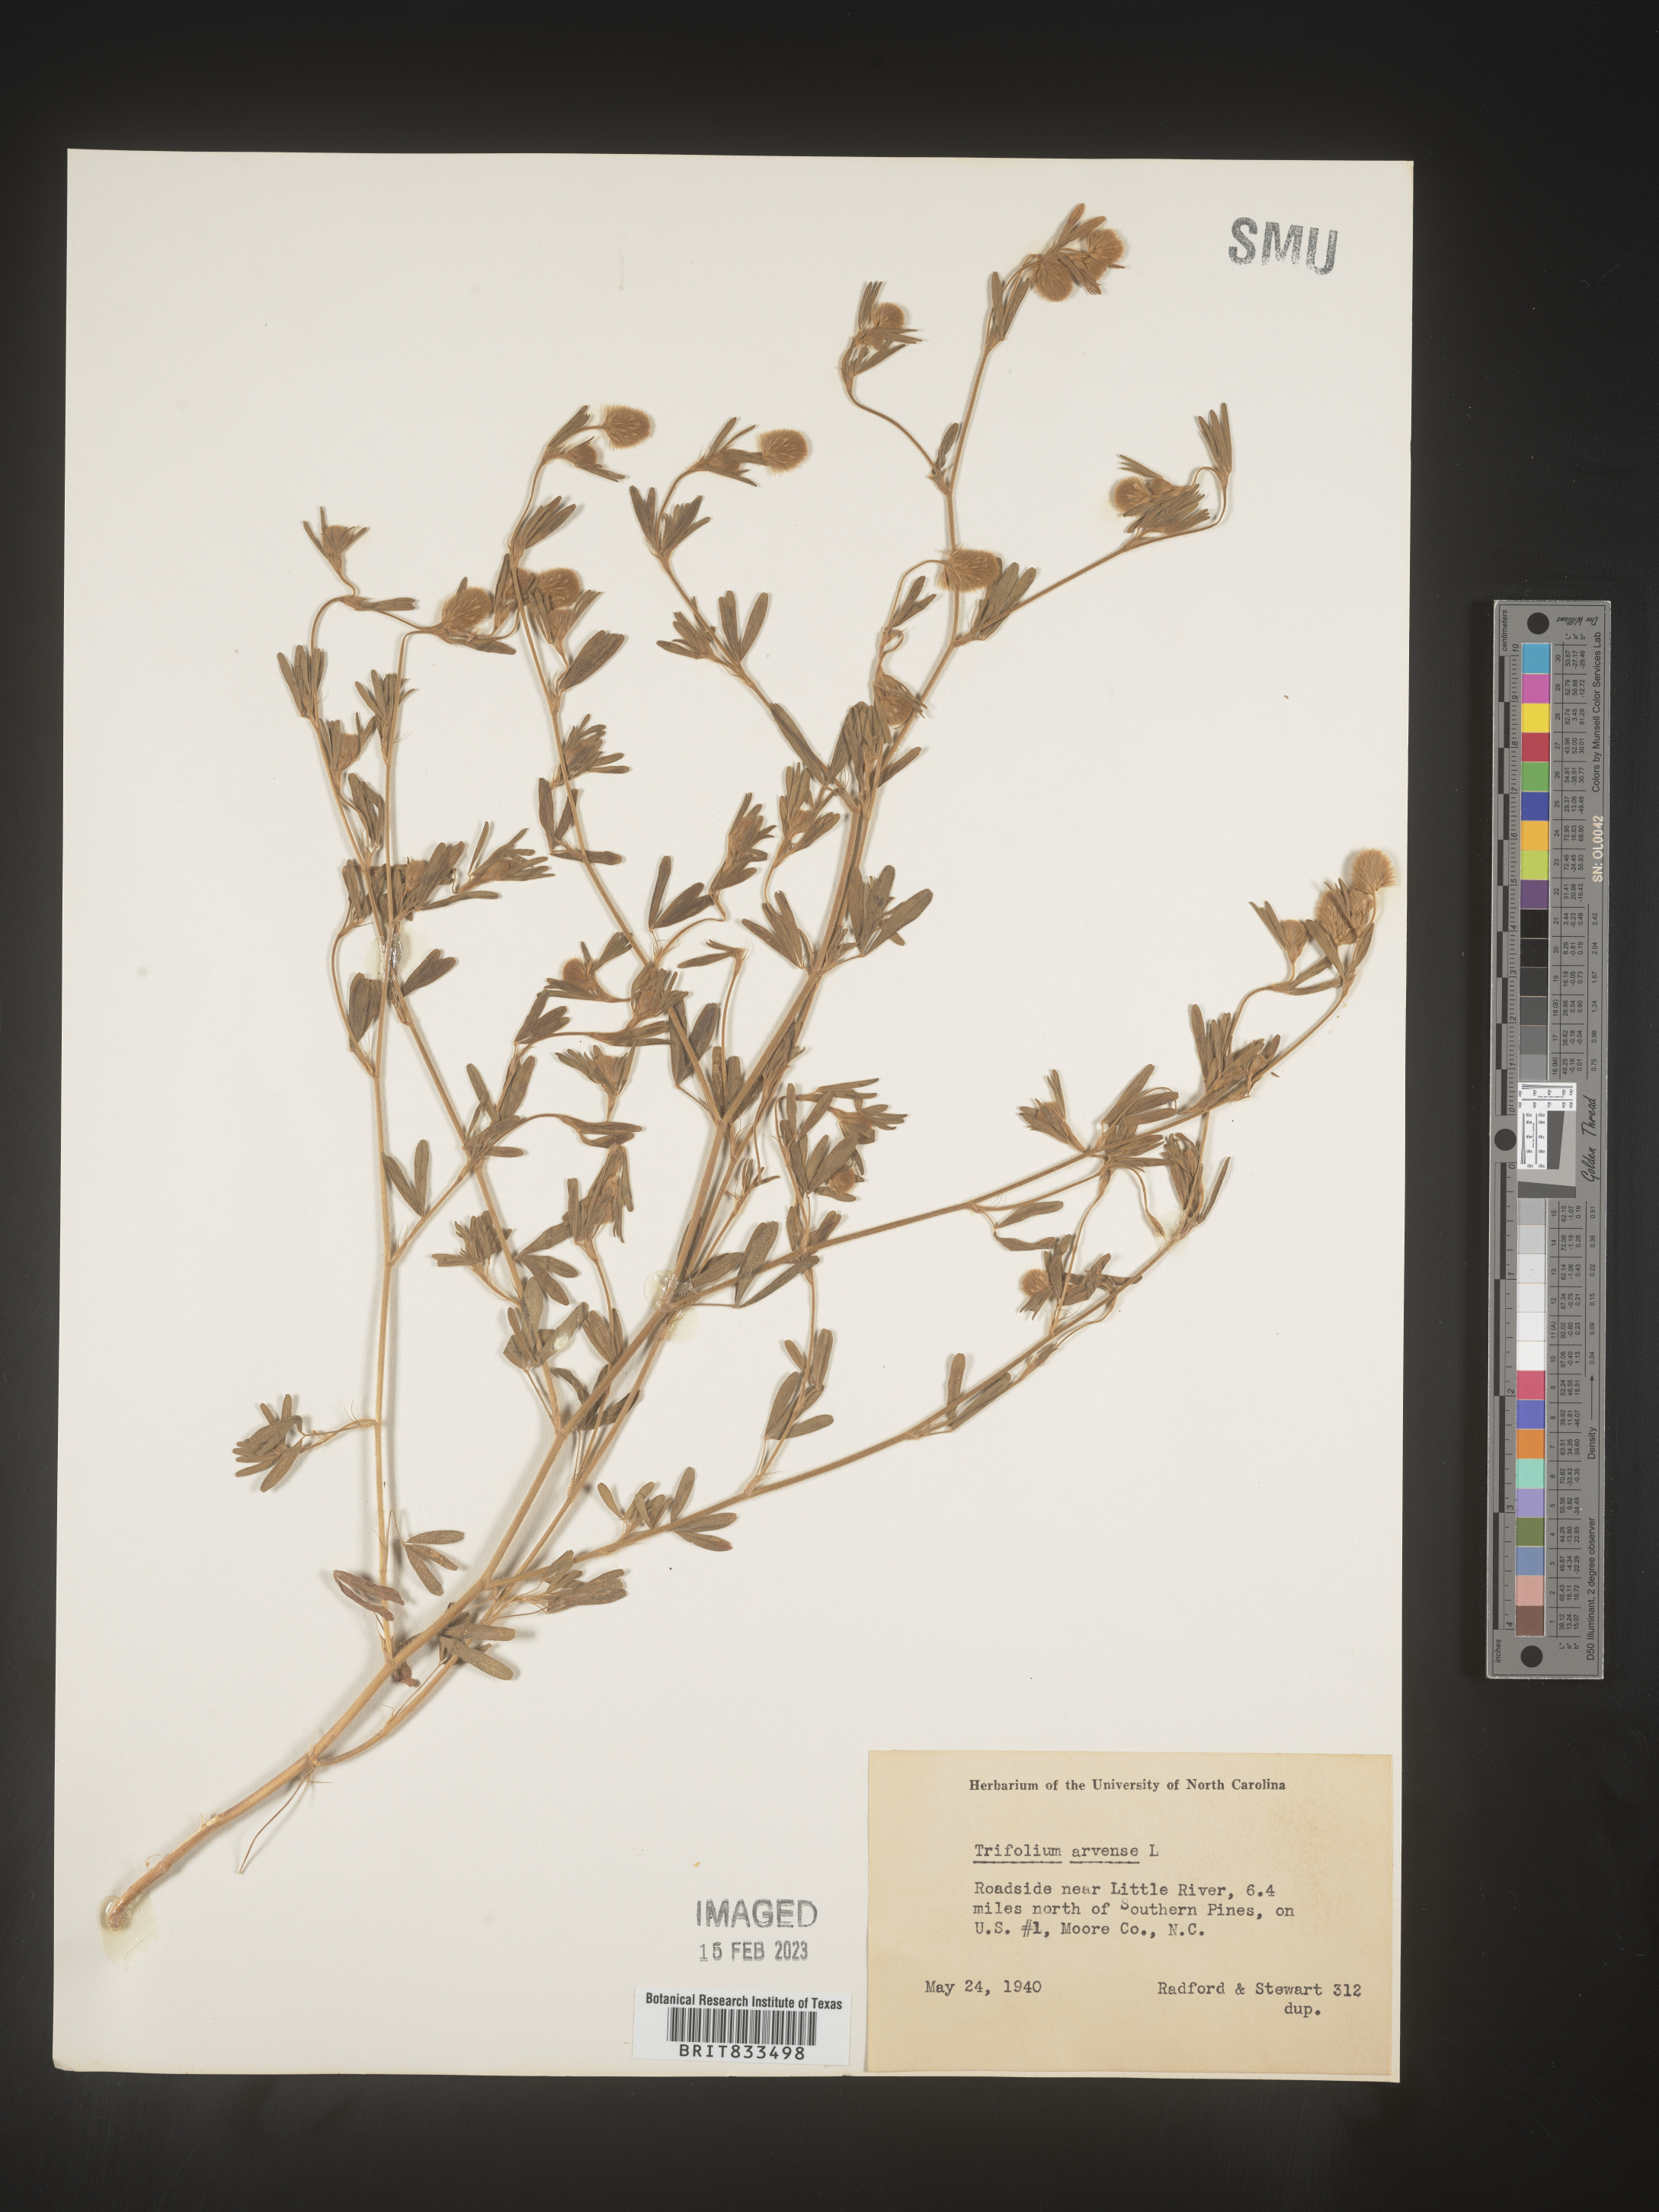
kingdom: Plantae
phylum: Tracheophyta
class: Magnoliopsida
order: Fabales
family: Fabaceae
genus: Trifolium
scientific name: Trifolium arvense
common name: Hare's-foot clover
